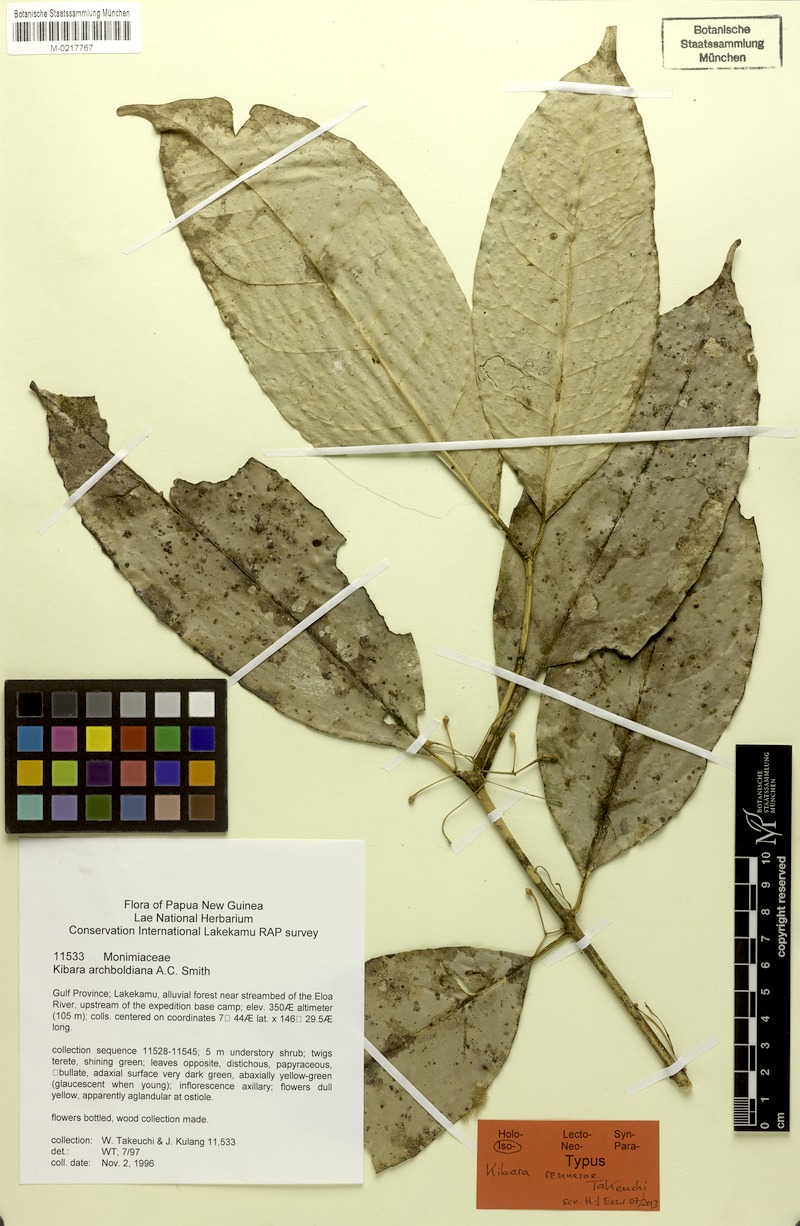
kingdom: Plantae
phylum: Tracheophyta
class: Magnoliopsida
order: Laurales
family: Monimiaceae
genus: Kibara
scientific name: Kibara rennerae
